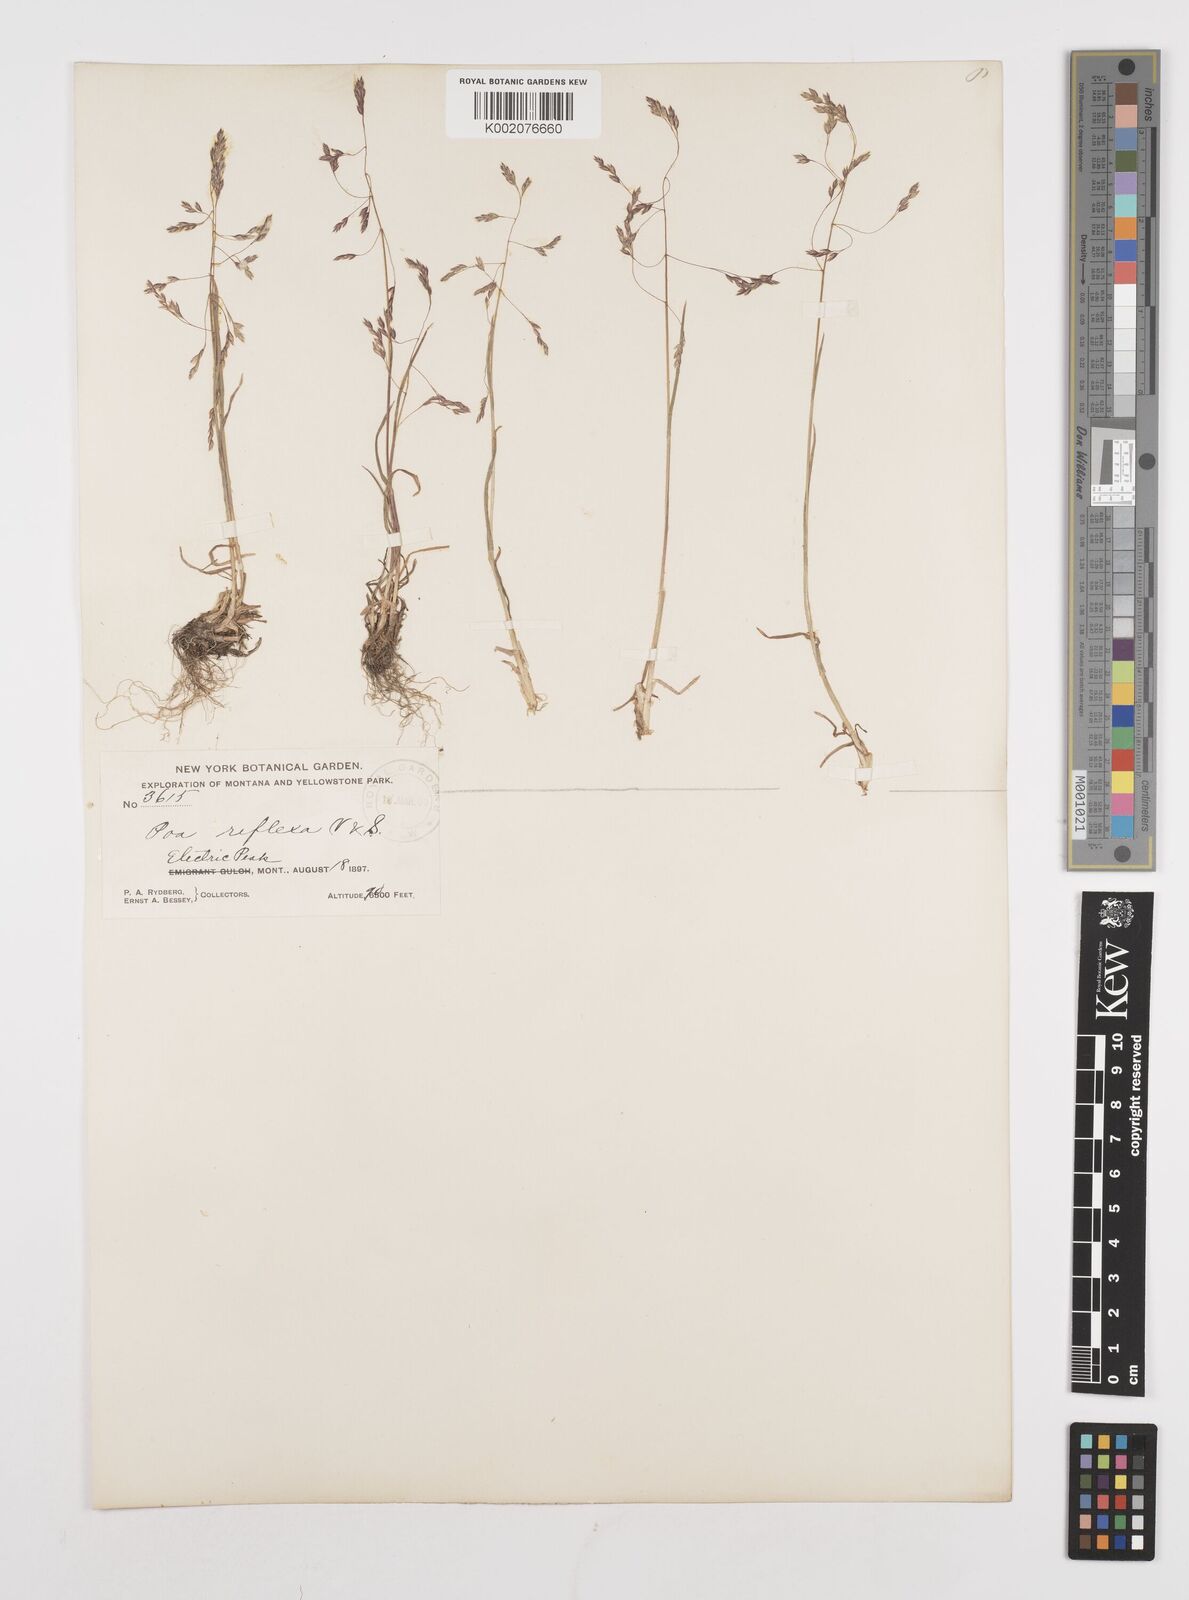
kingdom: Plantae
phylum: Tracheophyta
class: Liliopsida
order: Poales
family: Poaceae
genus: Poa
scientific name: Poa reflexa
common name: Nodding bluegrass
